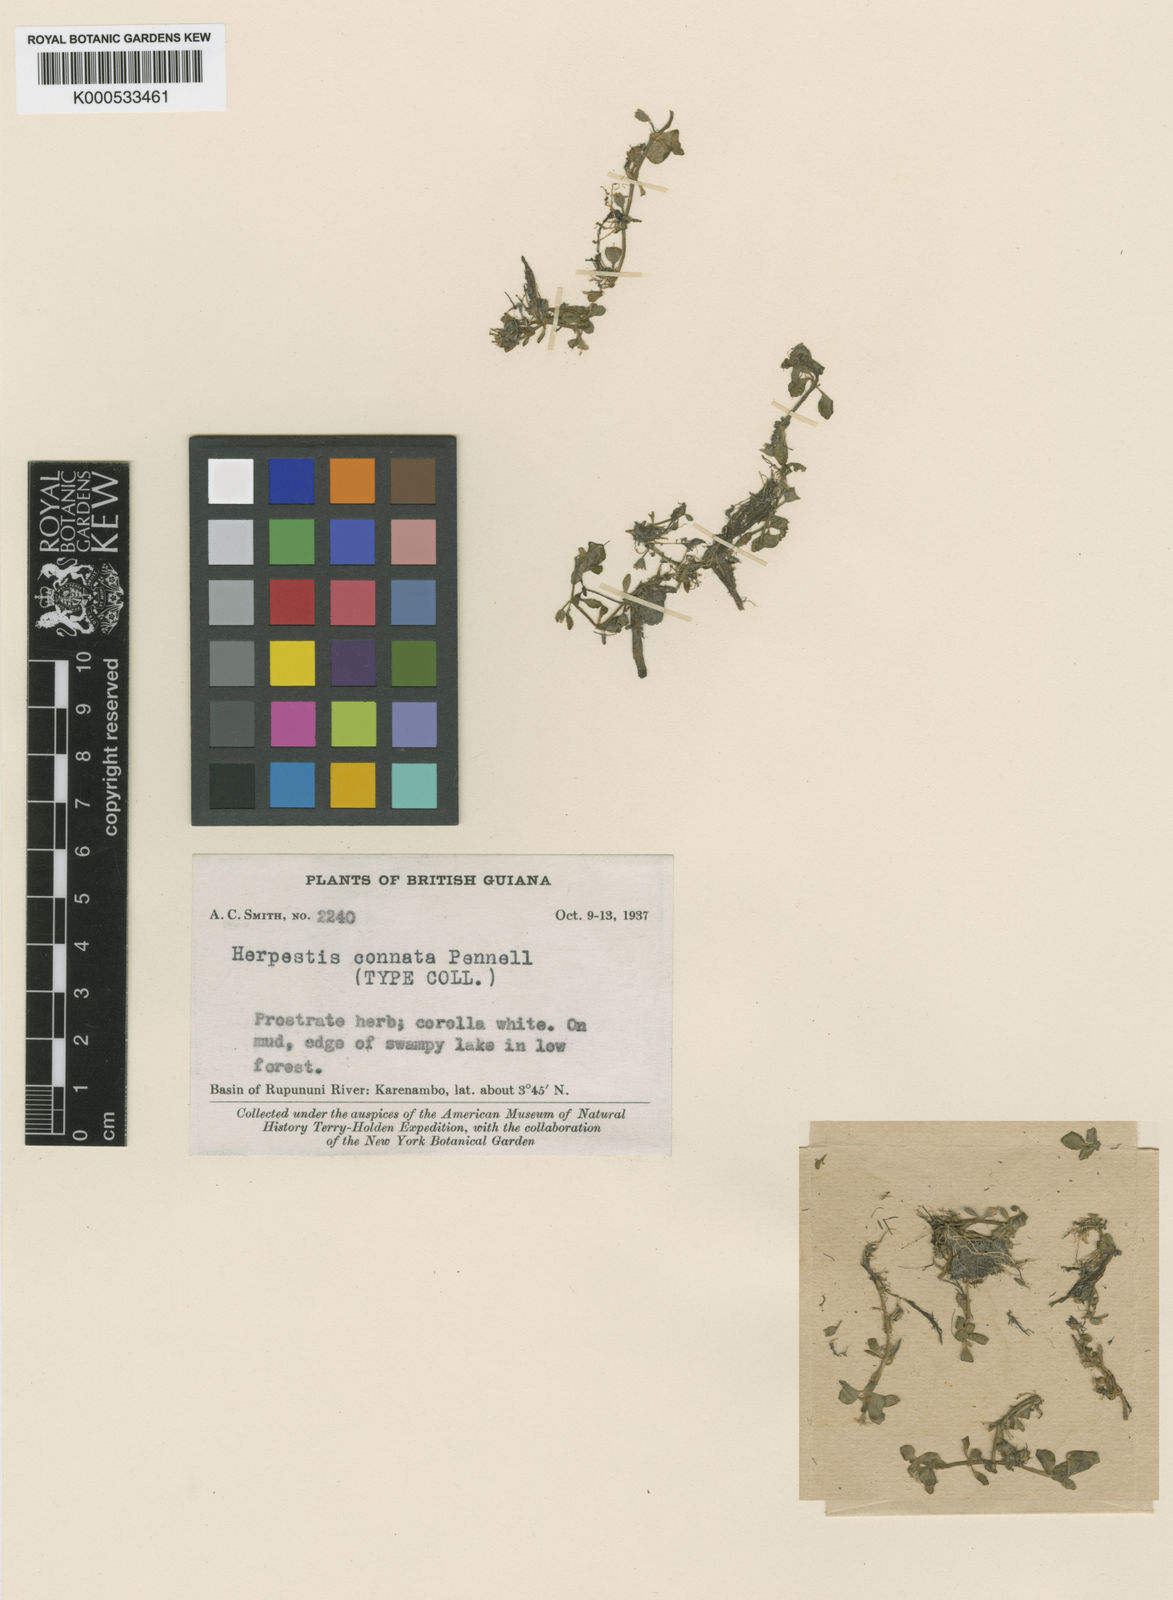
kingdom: Plantae
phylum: Tracheophyta
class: Magnoliopsida
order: Lamiales
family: Plantaginaceae
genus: Bacopa
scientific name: Bacopa connata
